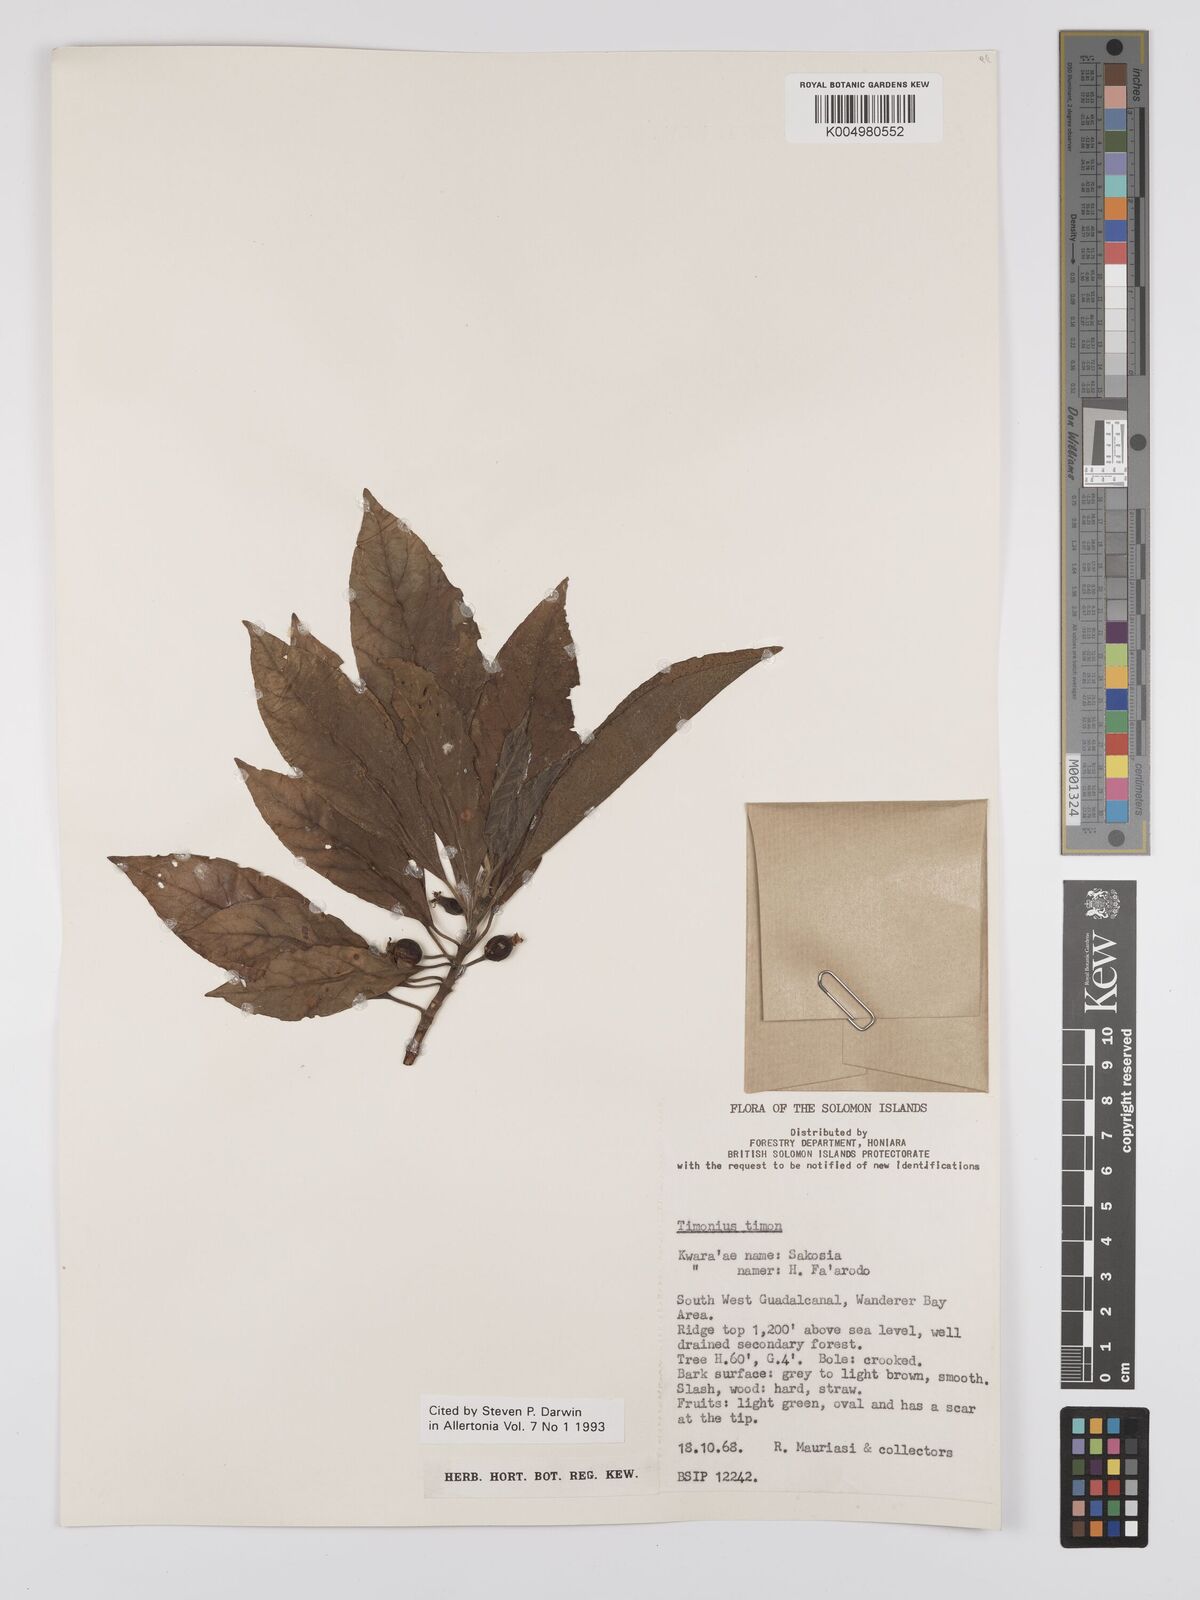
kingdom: Plantae
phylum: Tracheophyta
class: Magnoliopsida
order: Gentianales
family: Rubiaceae
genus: Timonius
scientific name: Timonius timon
